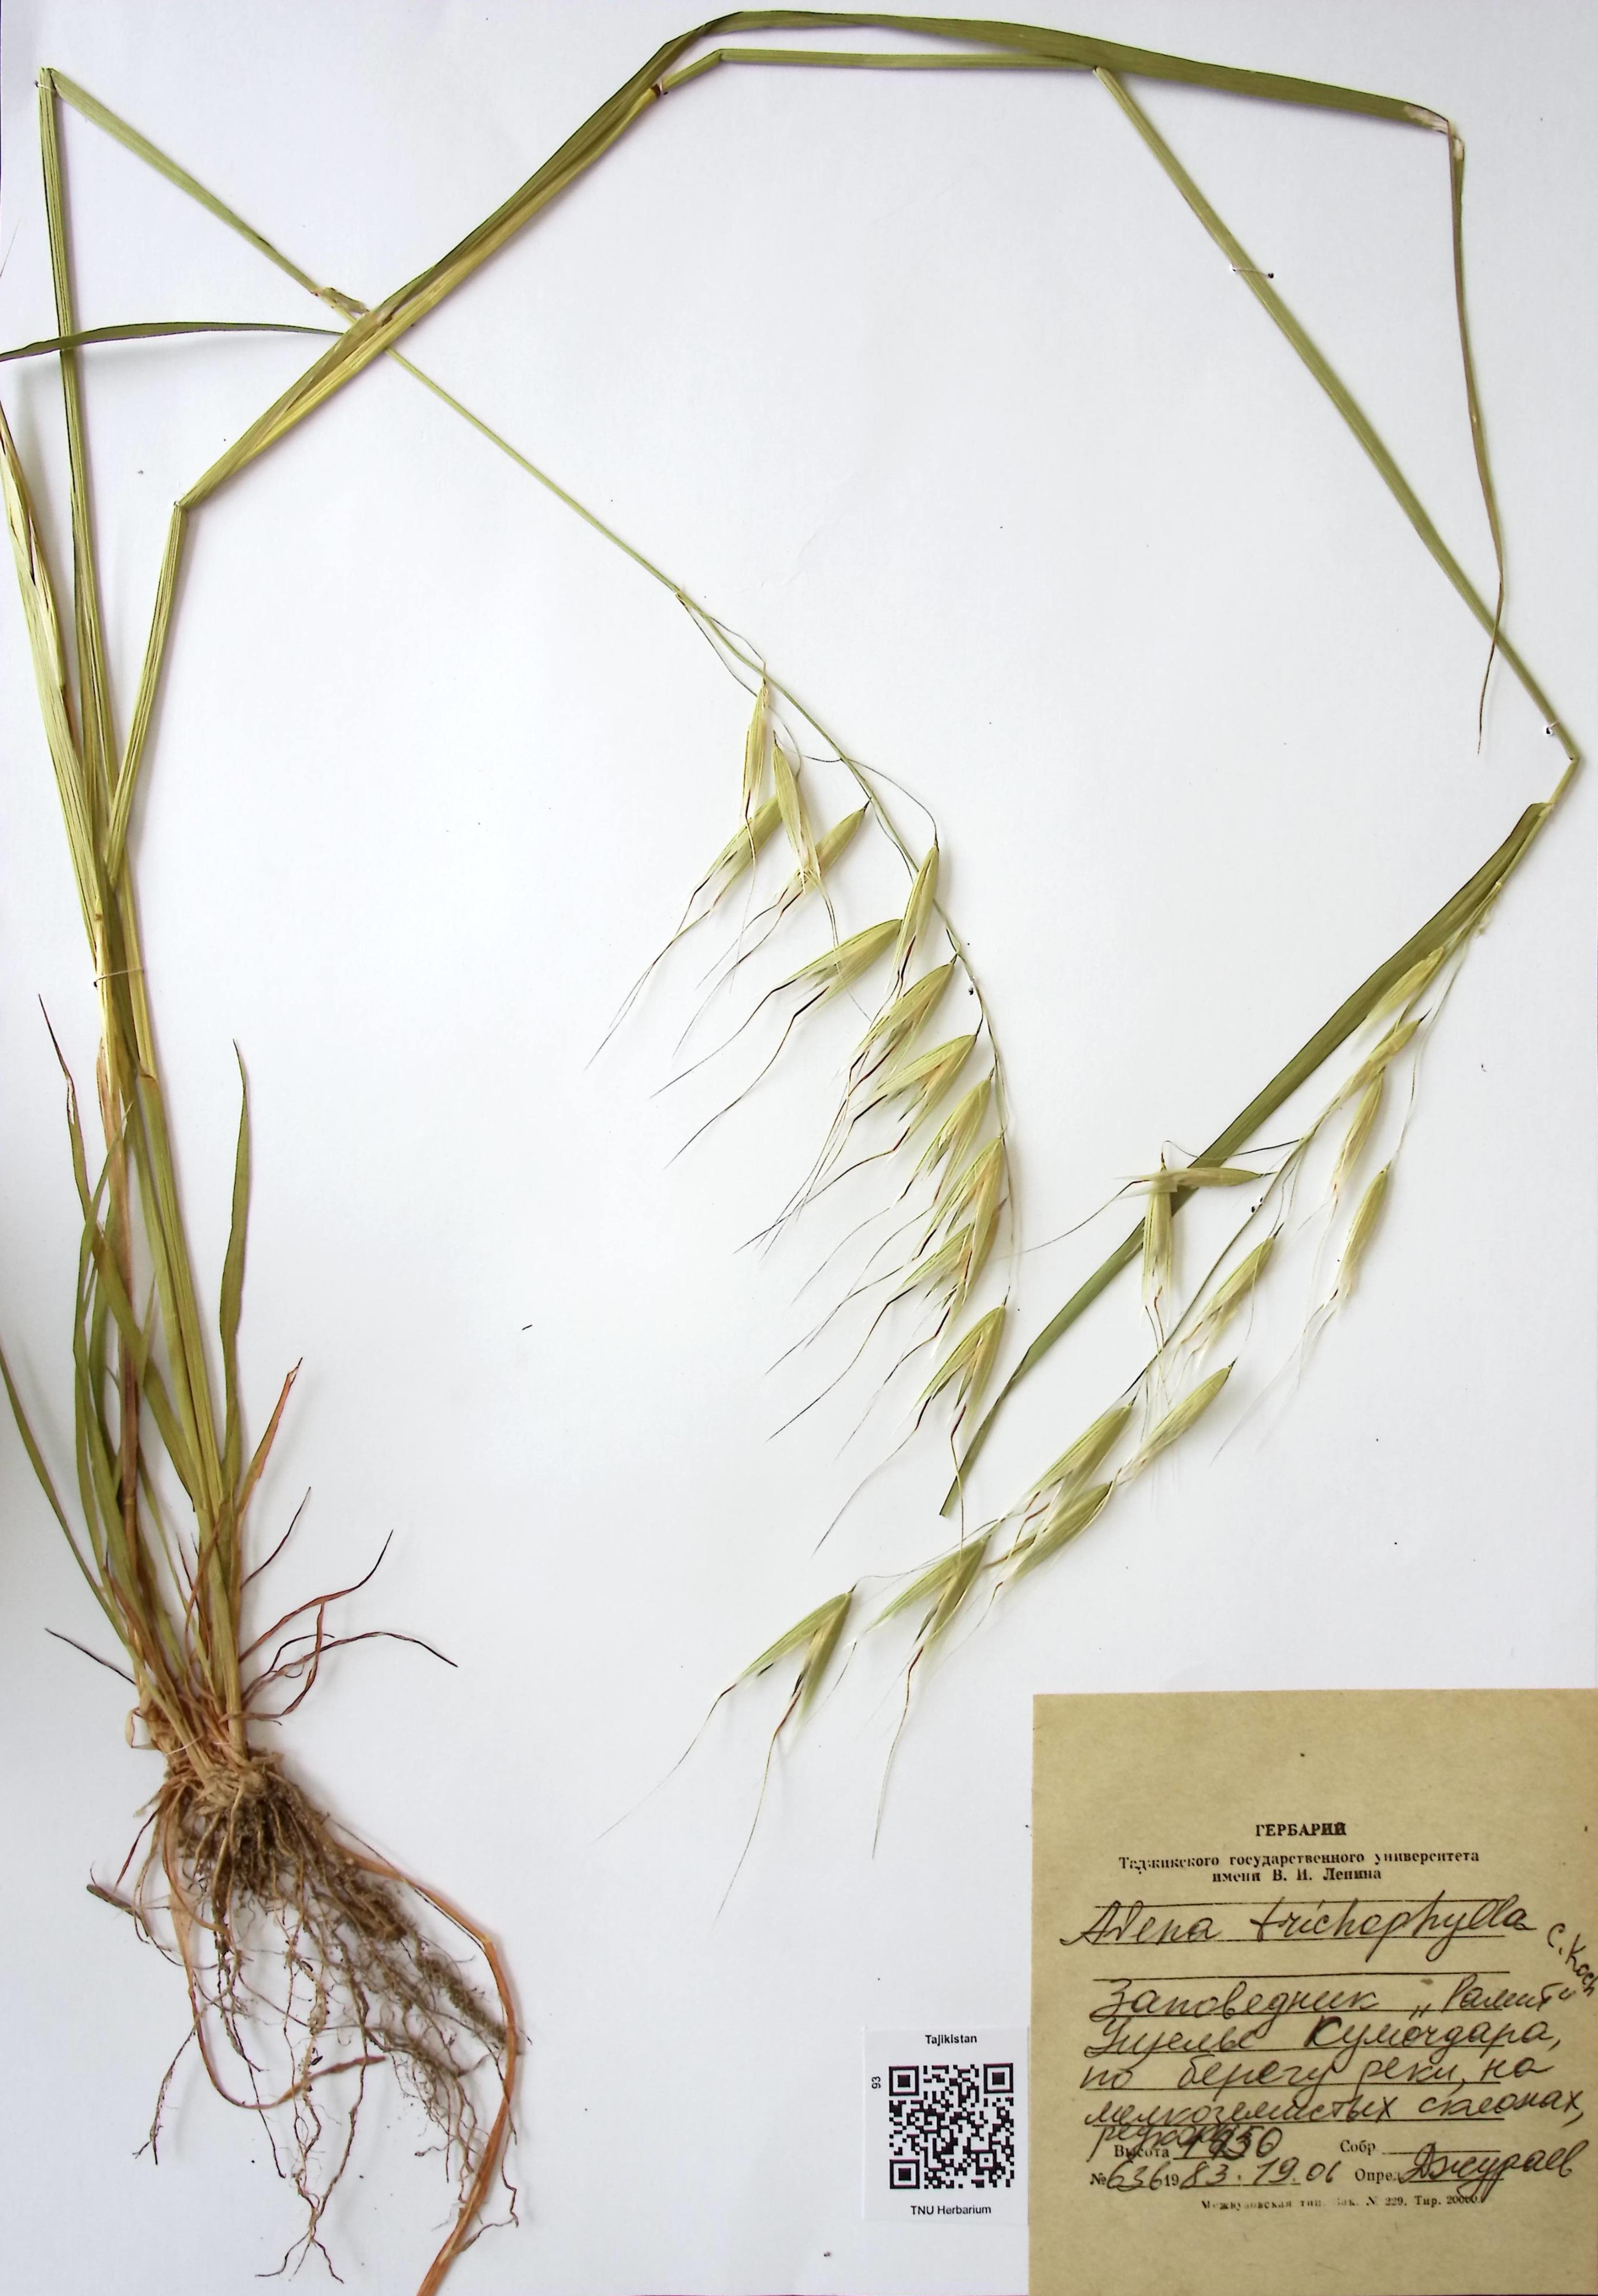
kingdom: Plantae
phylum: Tracheophyta
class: Liliopsida
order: Poales
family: Poaceae
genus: Avena
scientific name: Avena sterilis
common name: Animated oat
